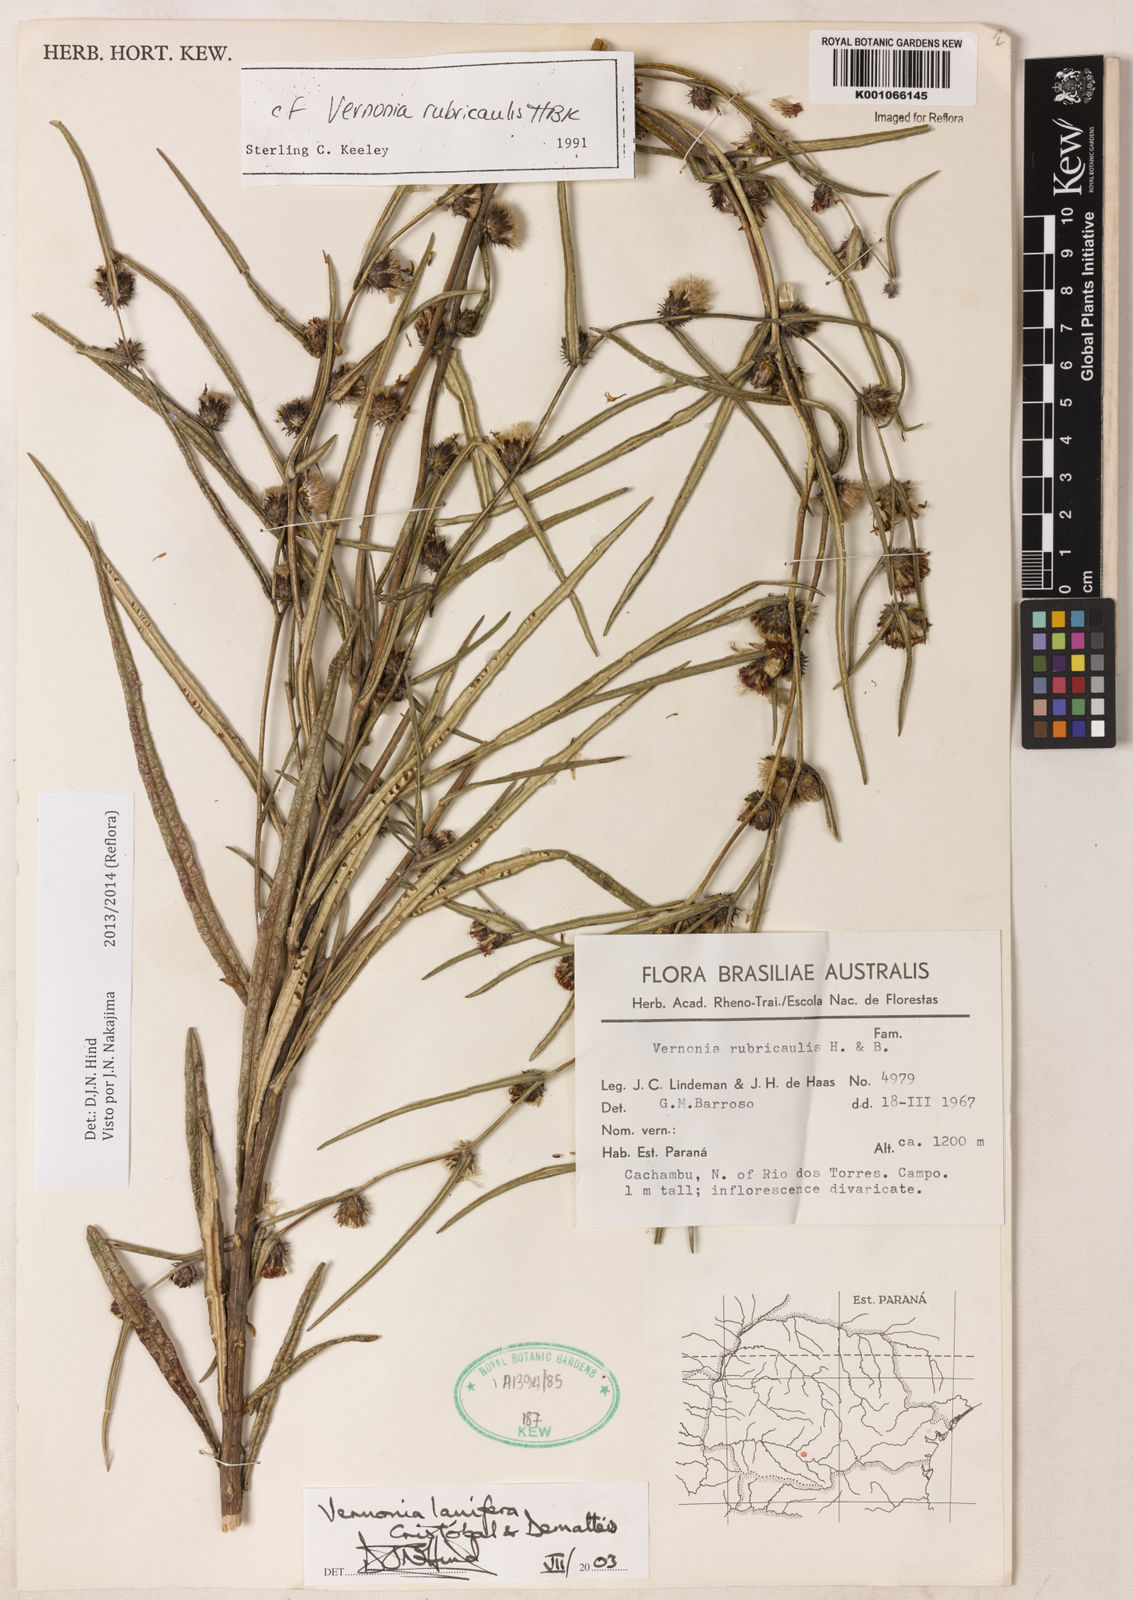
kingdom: Plantae
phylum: Tracheophyta
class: Magnoliopsida
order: Asterales
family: Asteraceae
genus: Vernonia
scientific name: Vernonia
